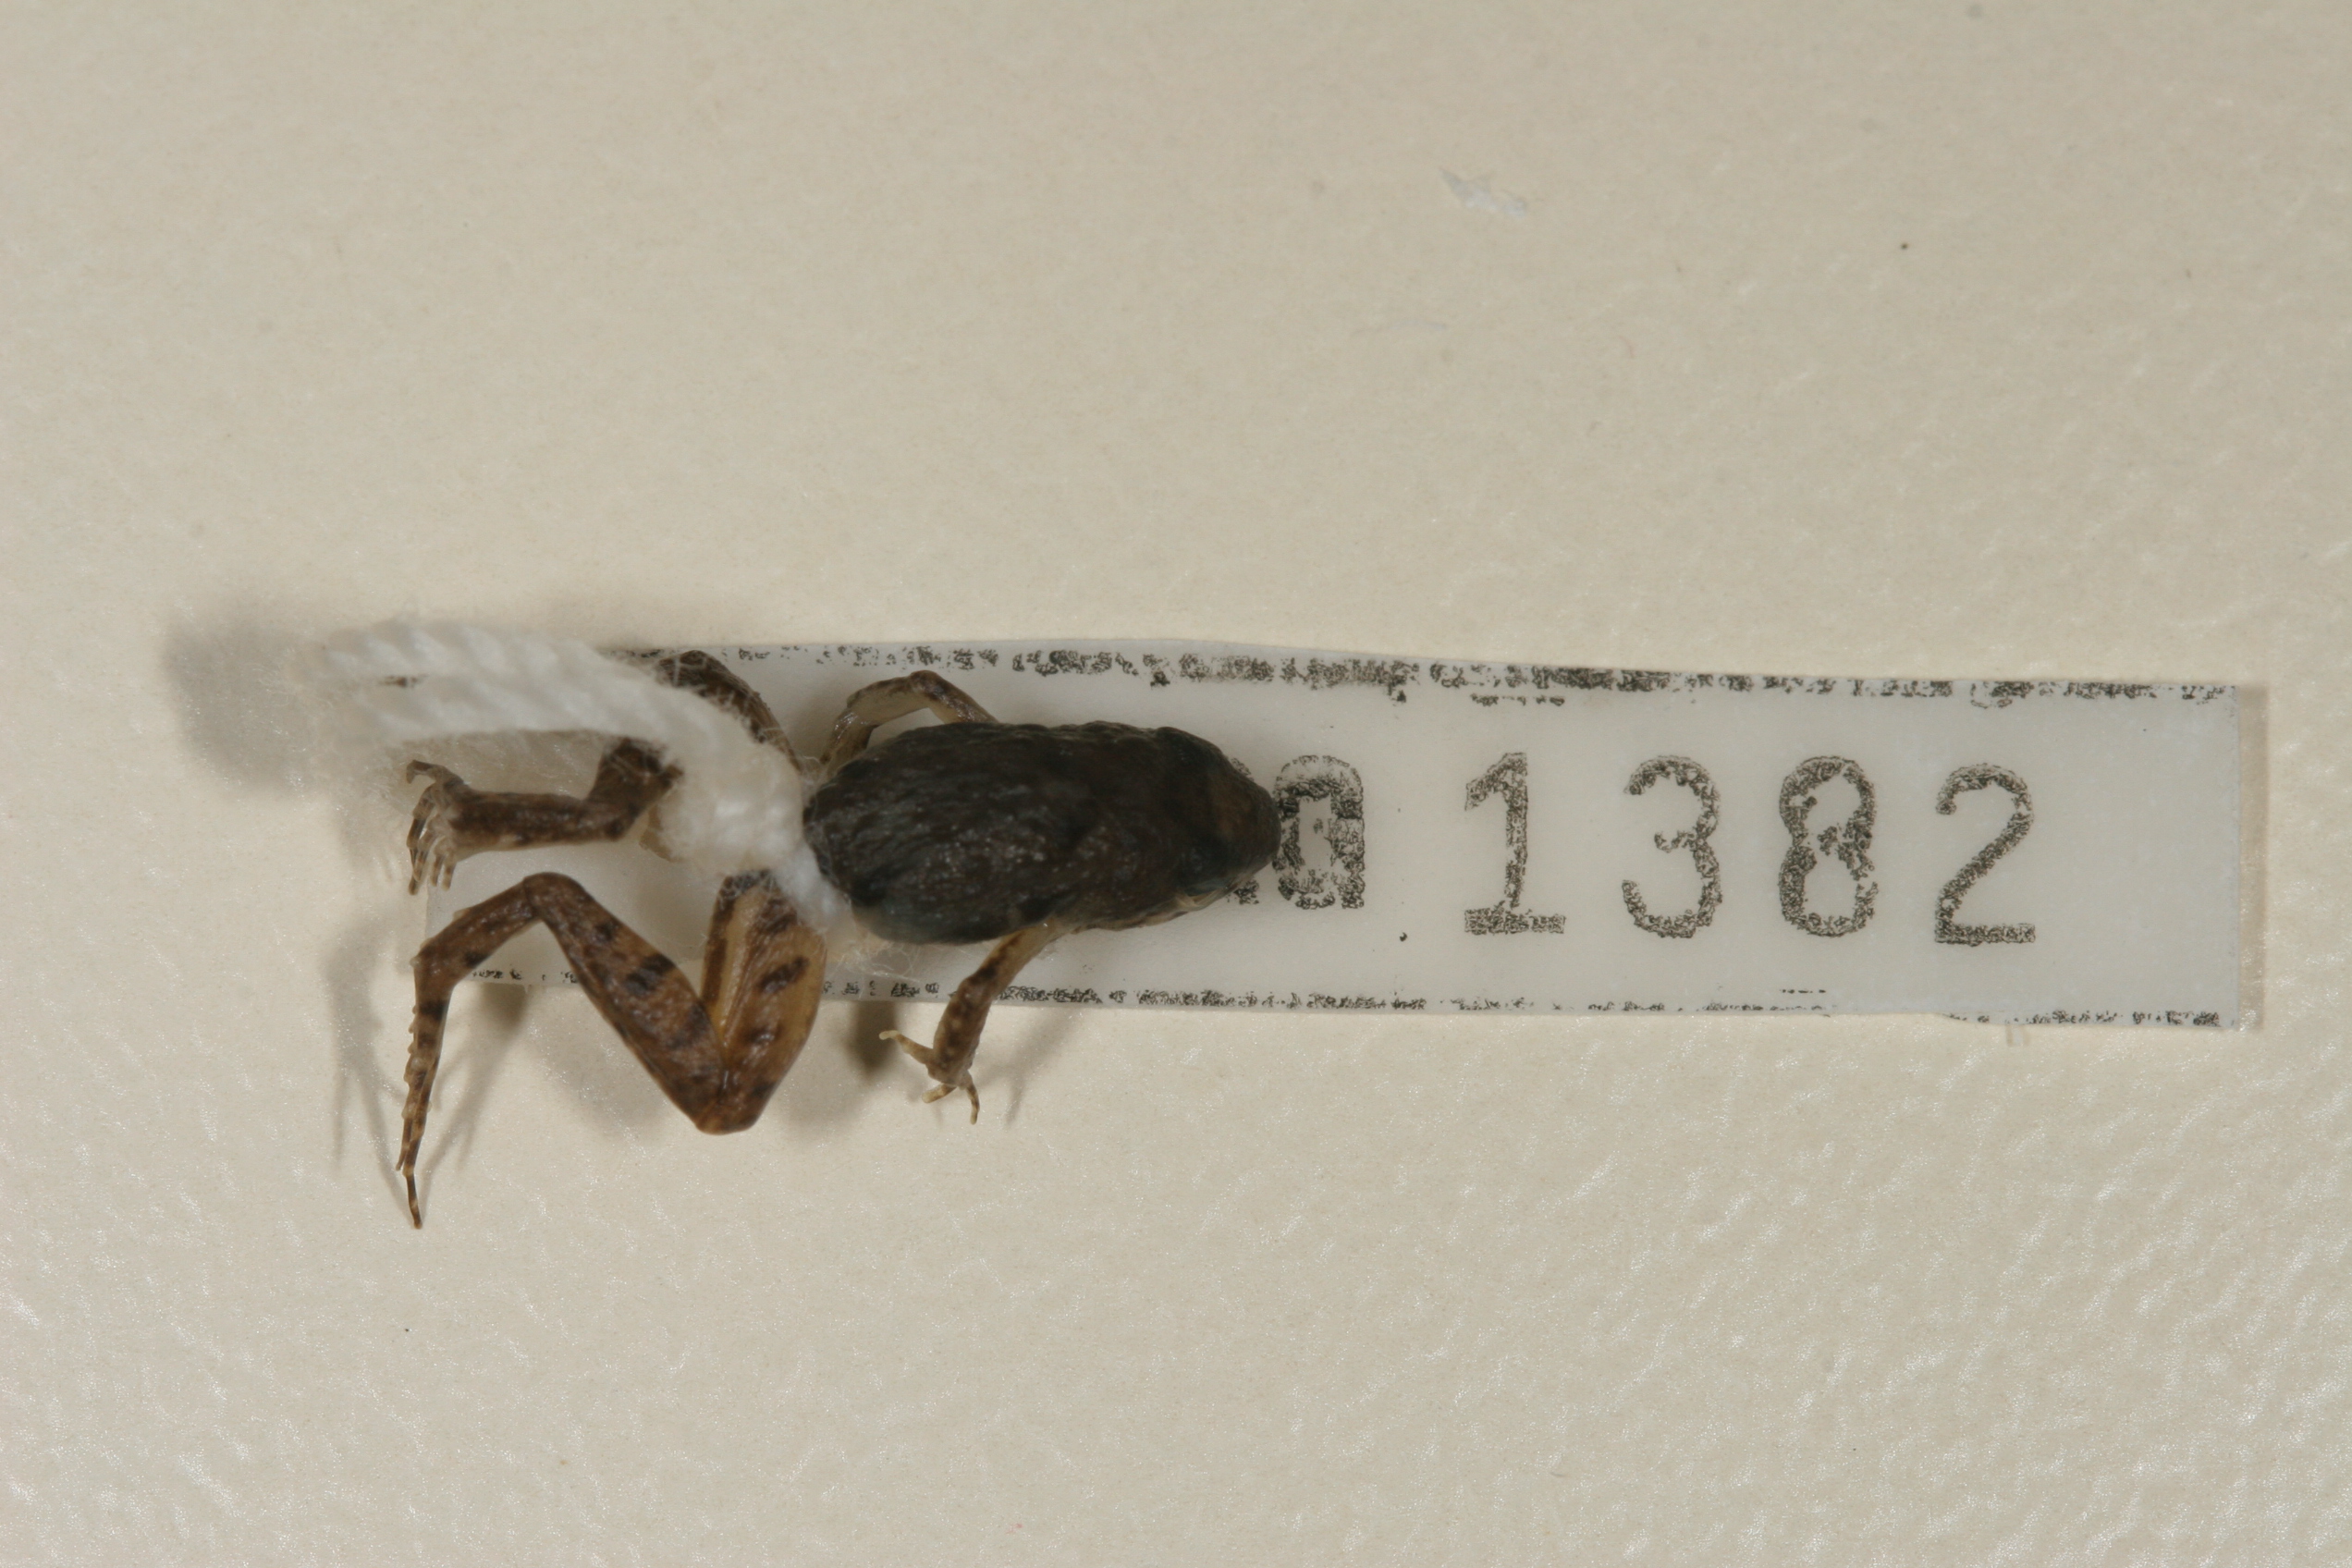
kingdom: Animalia
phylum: Chordata
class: Amphibia
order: Anura
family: Phrynobatrachidae
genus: Phrynobatrachus
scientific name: Phrynobatrachus mababiensis
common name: Dwarf puddle frog
